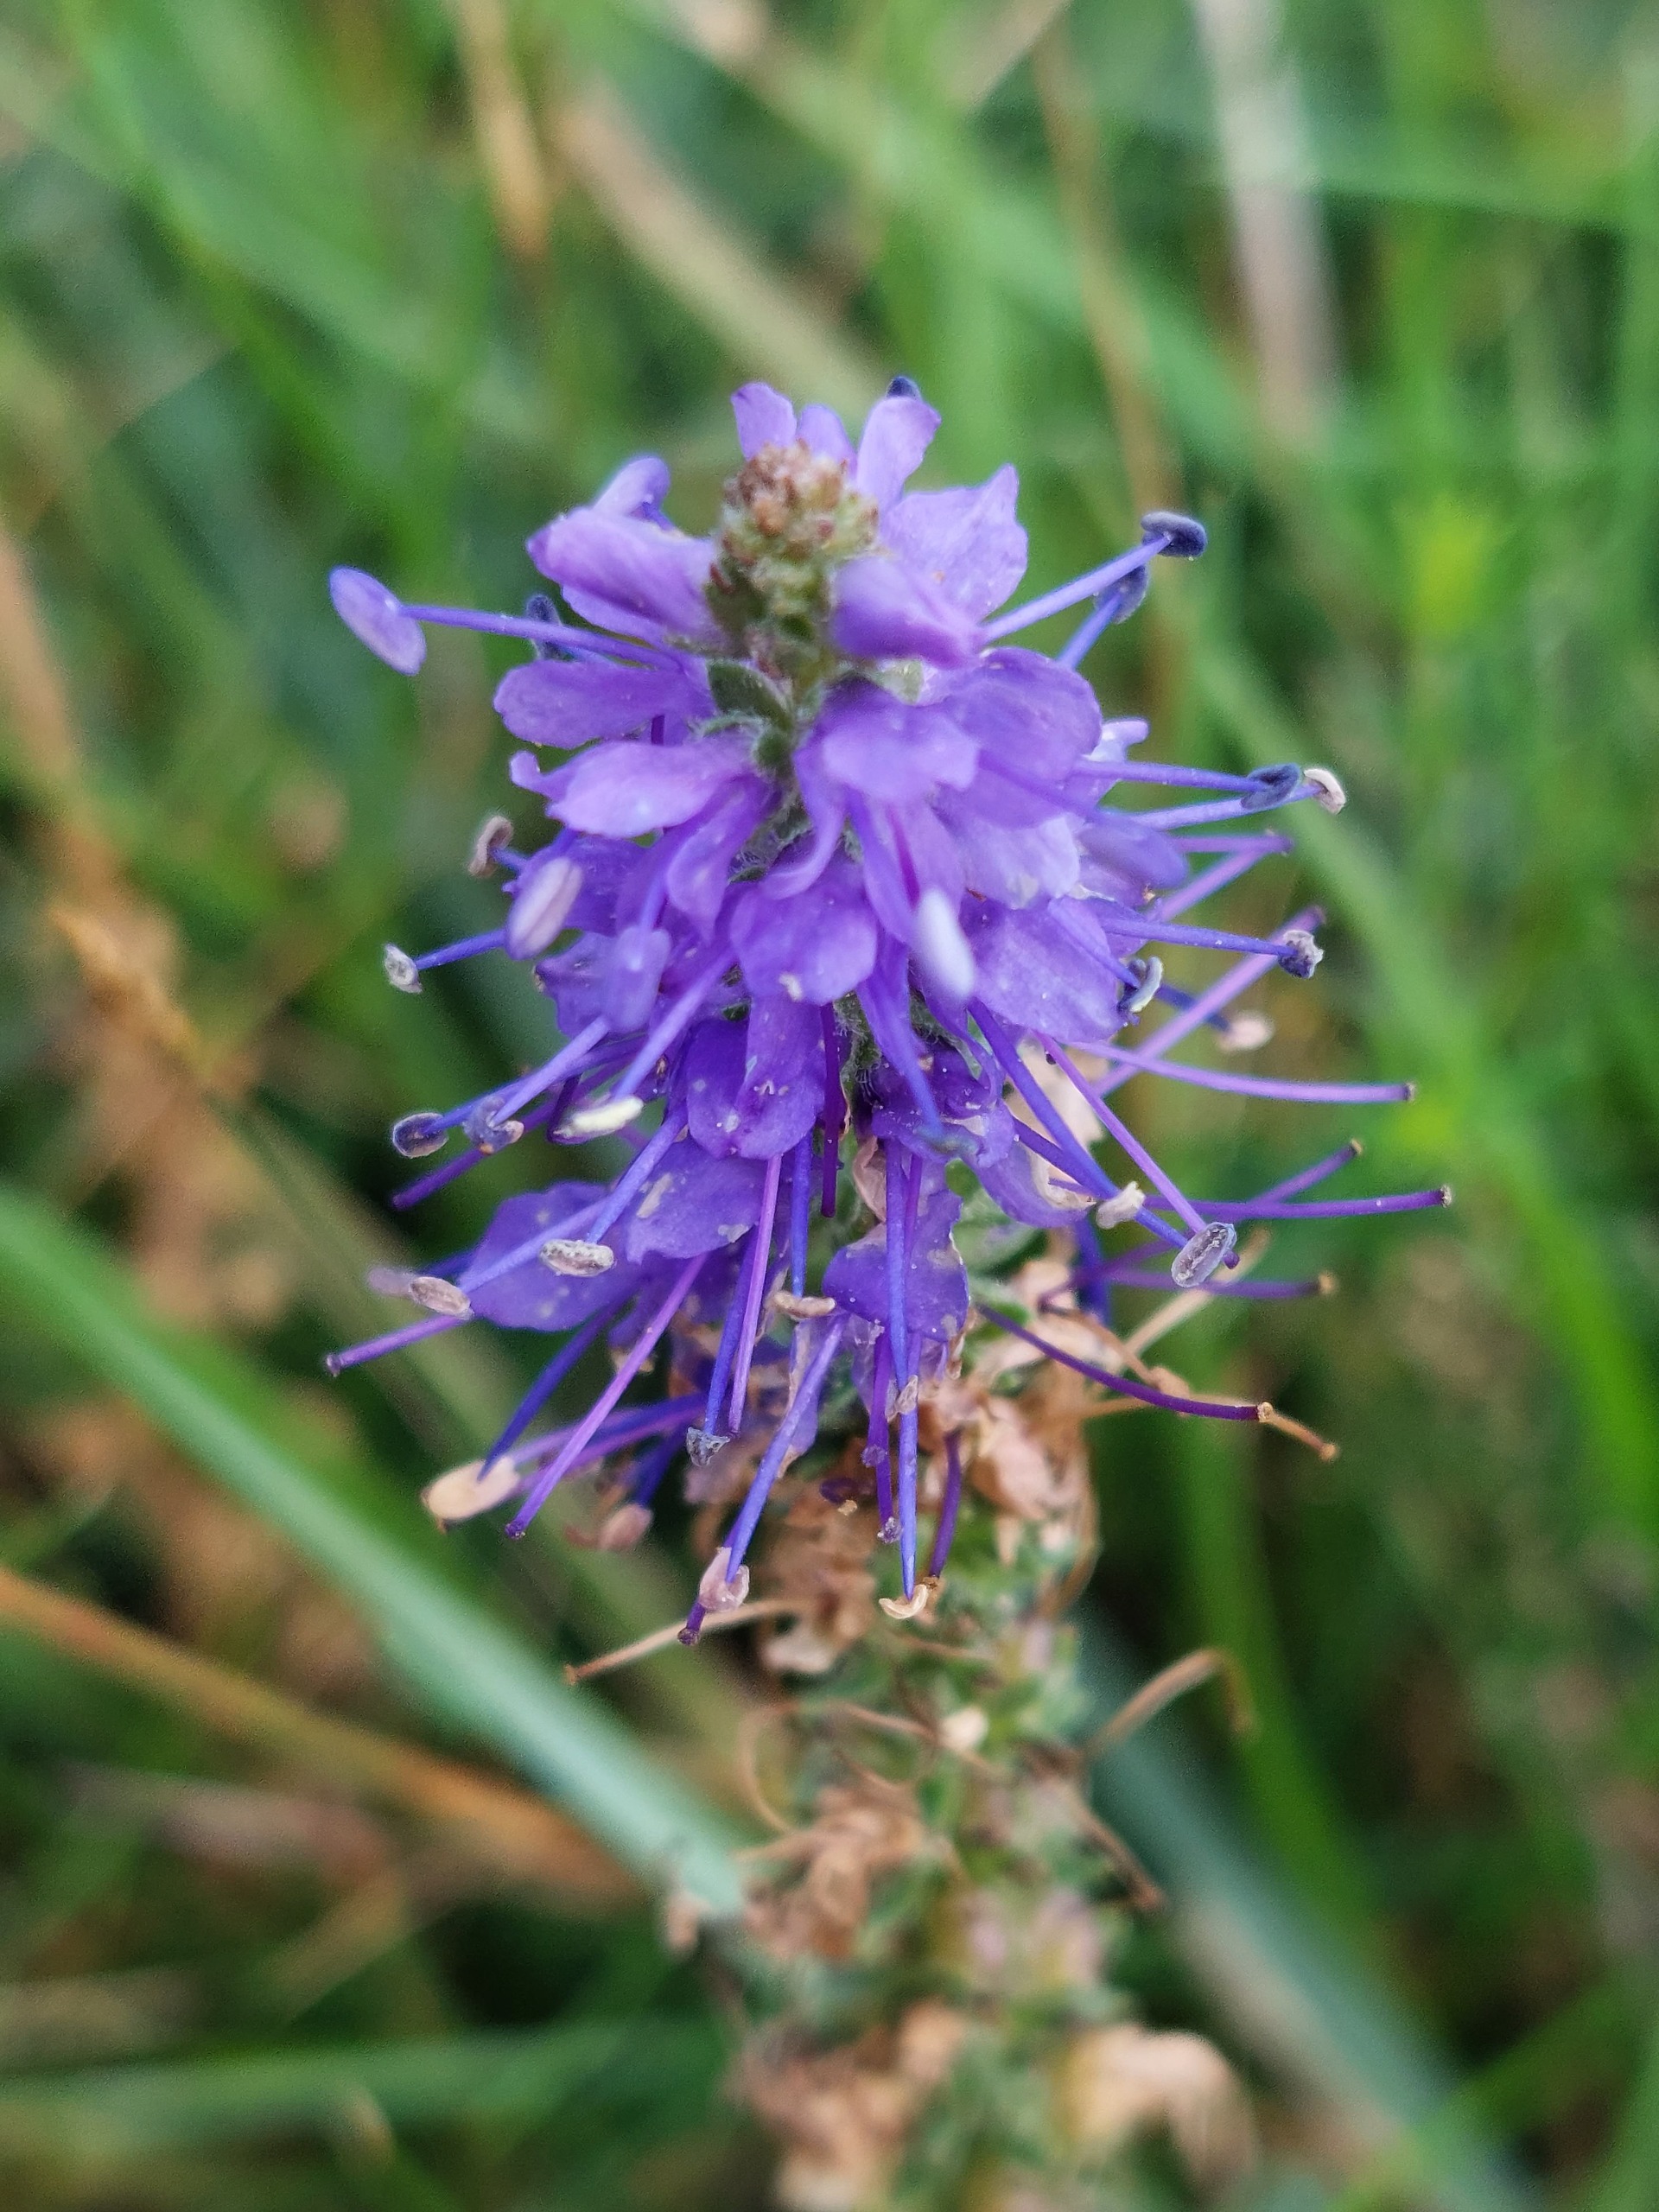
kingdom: Plantae
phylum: Tracheophyta
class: Magnoliopsida
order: Lamiales
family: Plantaginaceae
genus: Veronica
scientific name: Veronica spicata
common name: Aks-ærenpris
